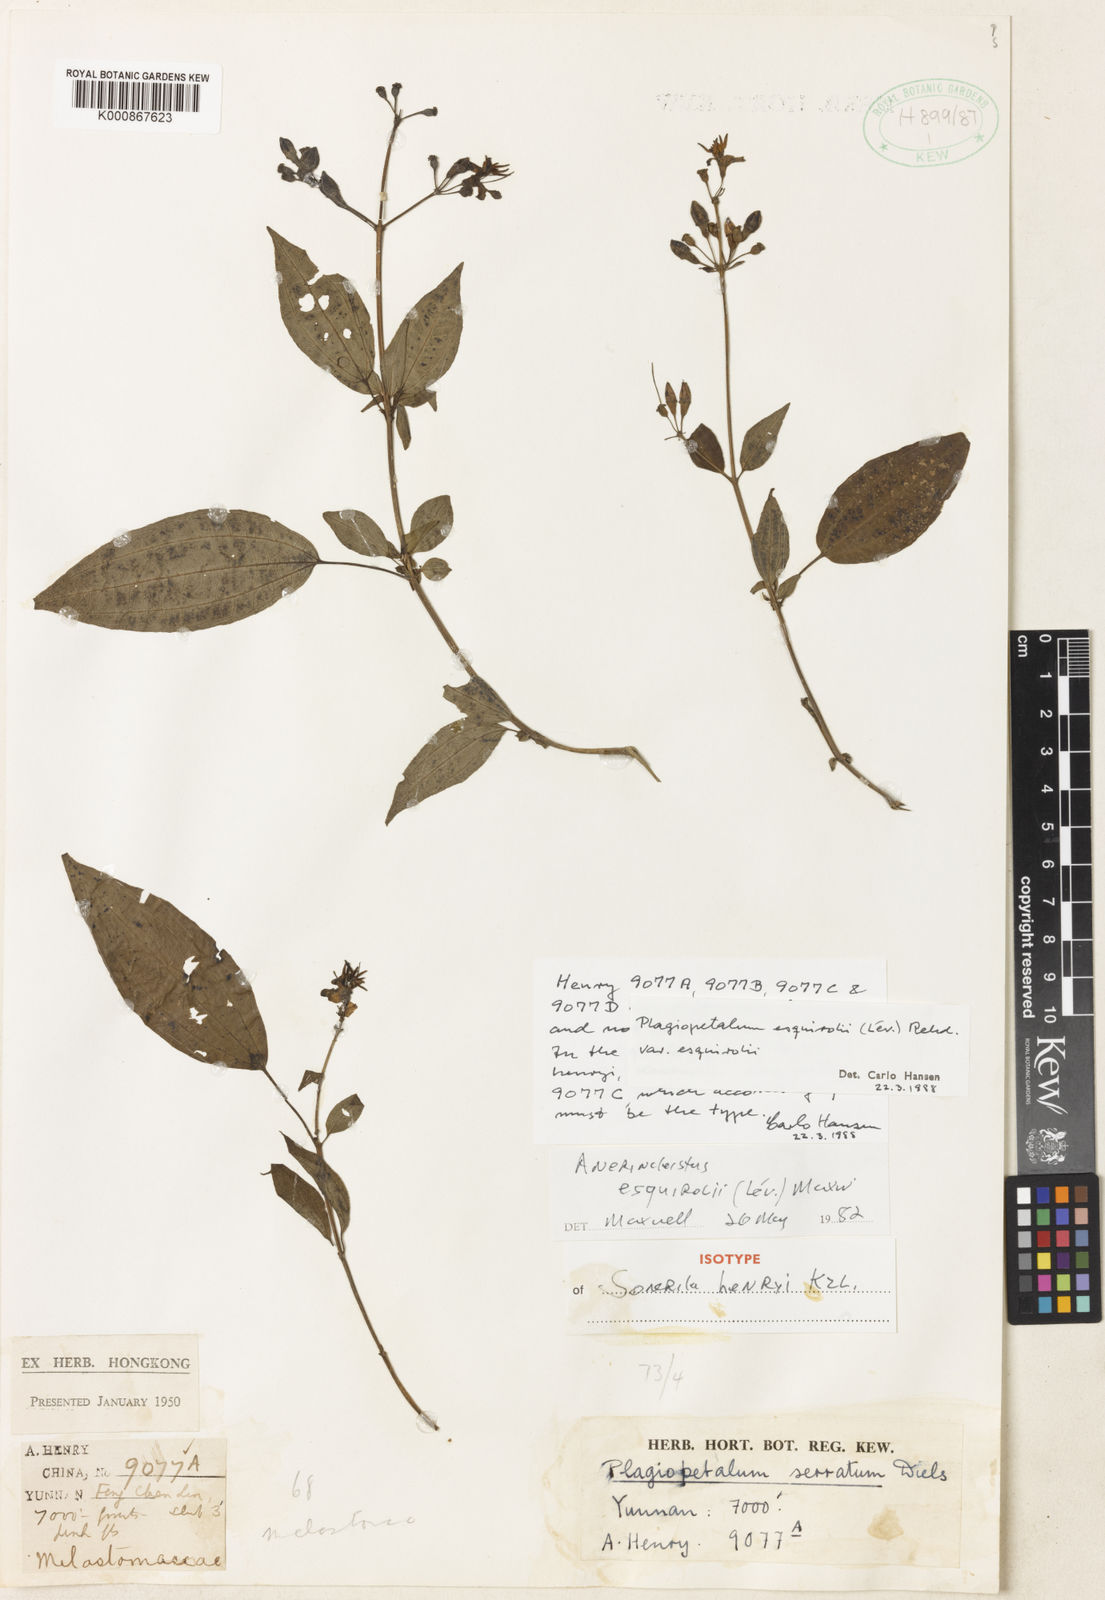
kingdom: Plantae
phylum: Tracheophyta
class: Magnoliopsida
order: Myrtales
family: Melastomataceae
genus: Plagiopetalum
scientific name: Plagiopetalum
